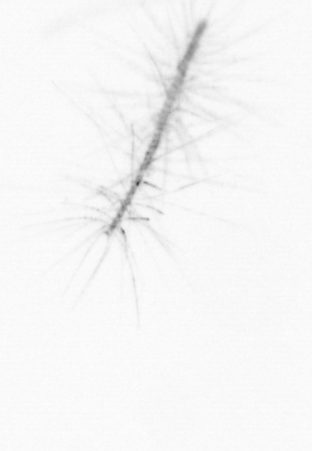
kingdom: Chromista
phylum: Ochrophyta
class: Bacillariophyceae
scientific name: Bacillariophyceae
